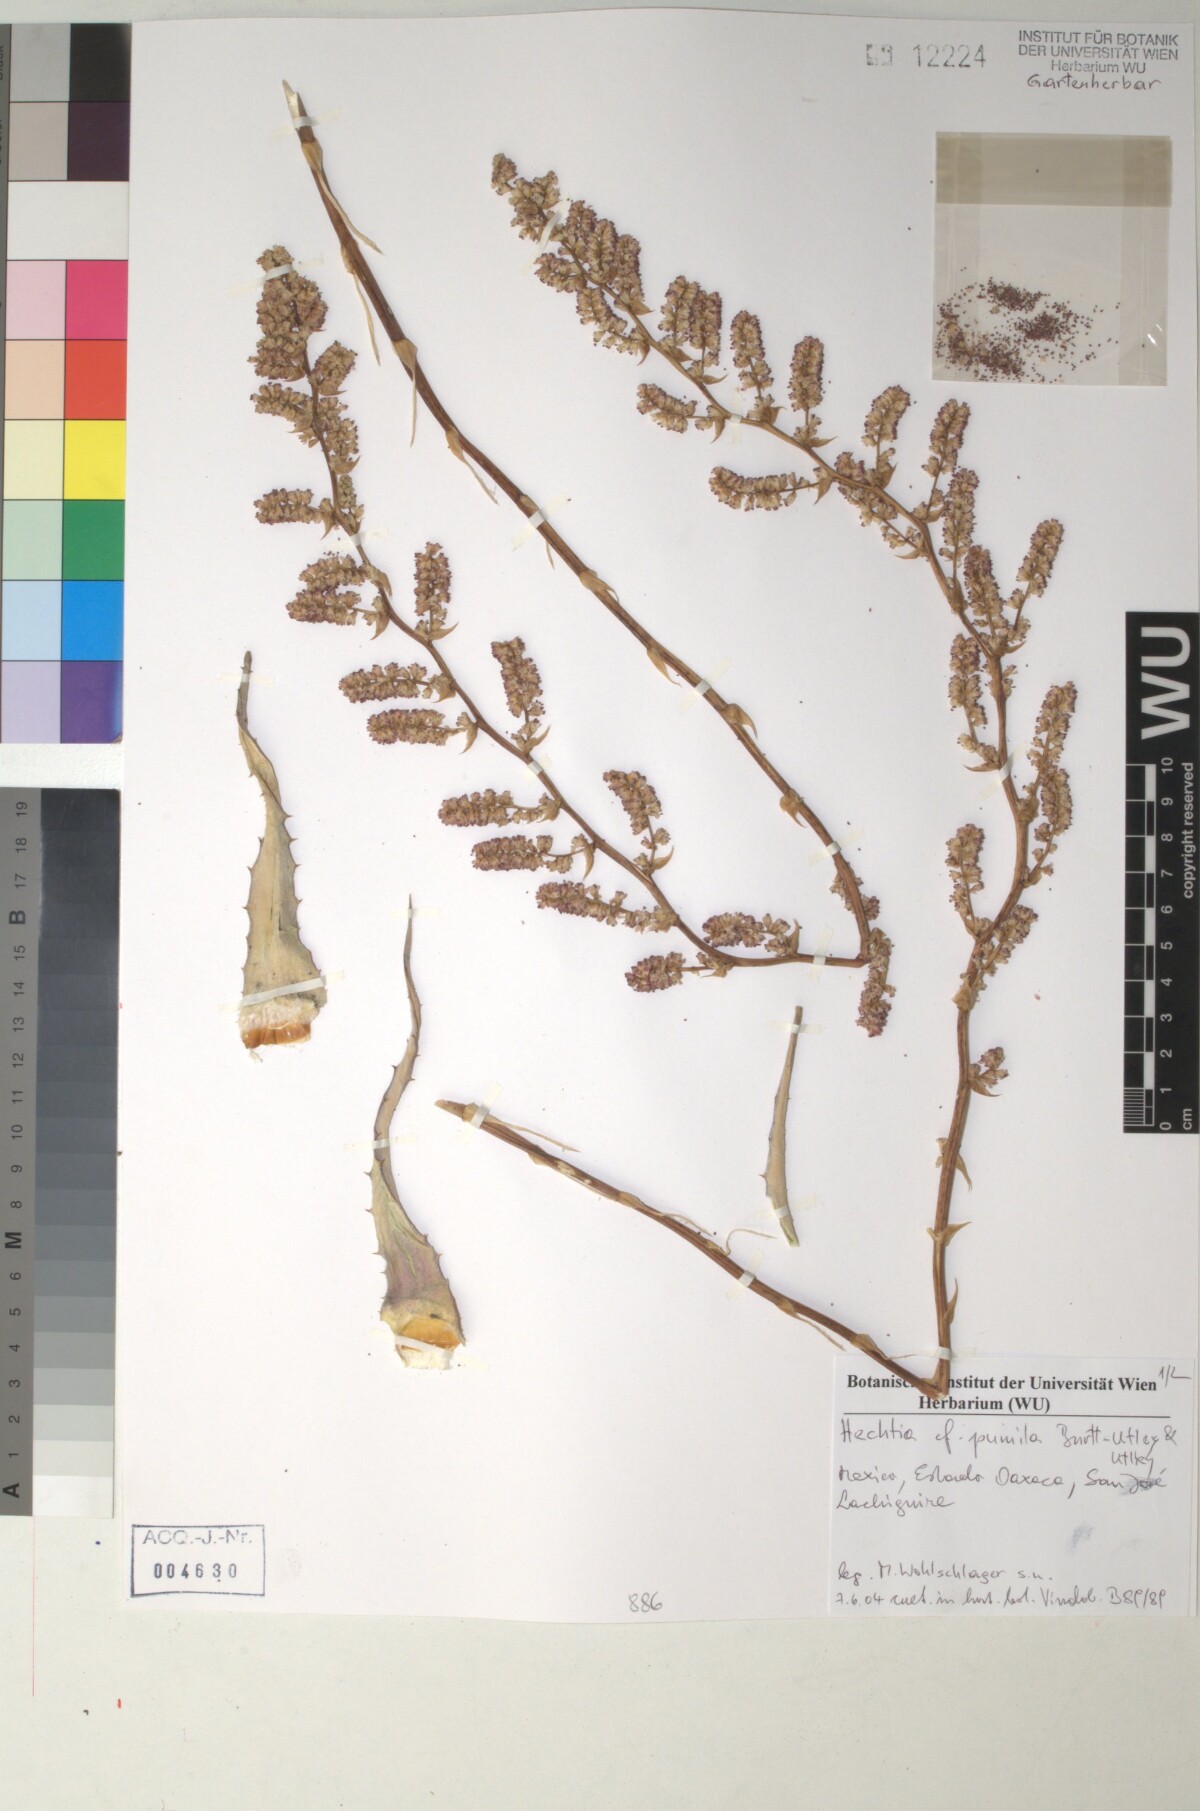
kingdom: Plantae
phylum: Tracheophyta
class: Liliopsida
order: Poales
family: Bromeliaceae
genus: Hechtia
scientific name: Hechtia marnier-lapostollei
